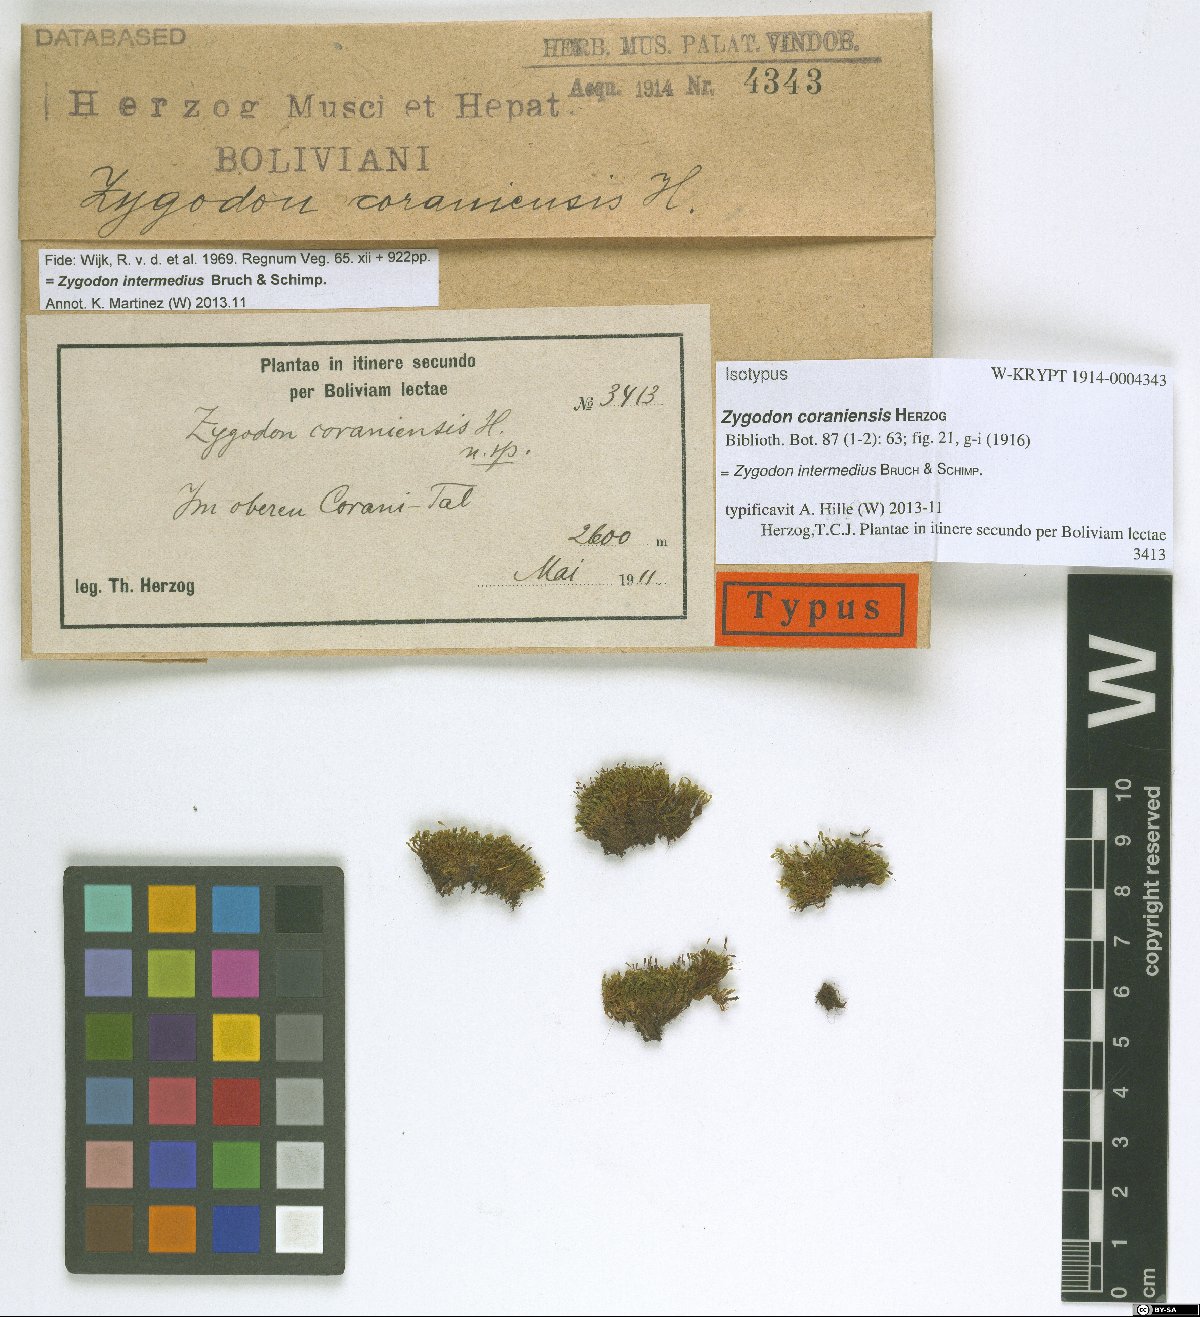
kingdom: Plantae
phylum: Bryophyta
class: Bryopsida
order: Orthotrichales
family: Orthotrichaceae
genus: Zygodon
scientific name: Zygodon intermedius
